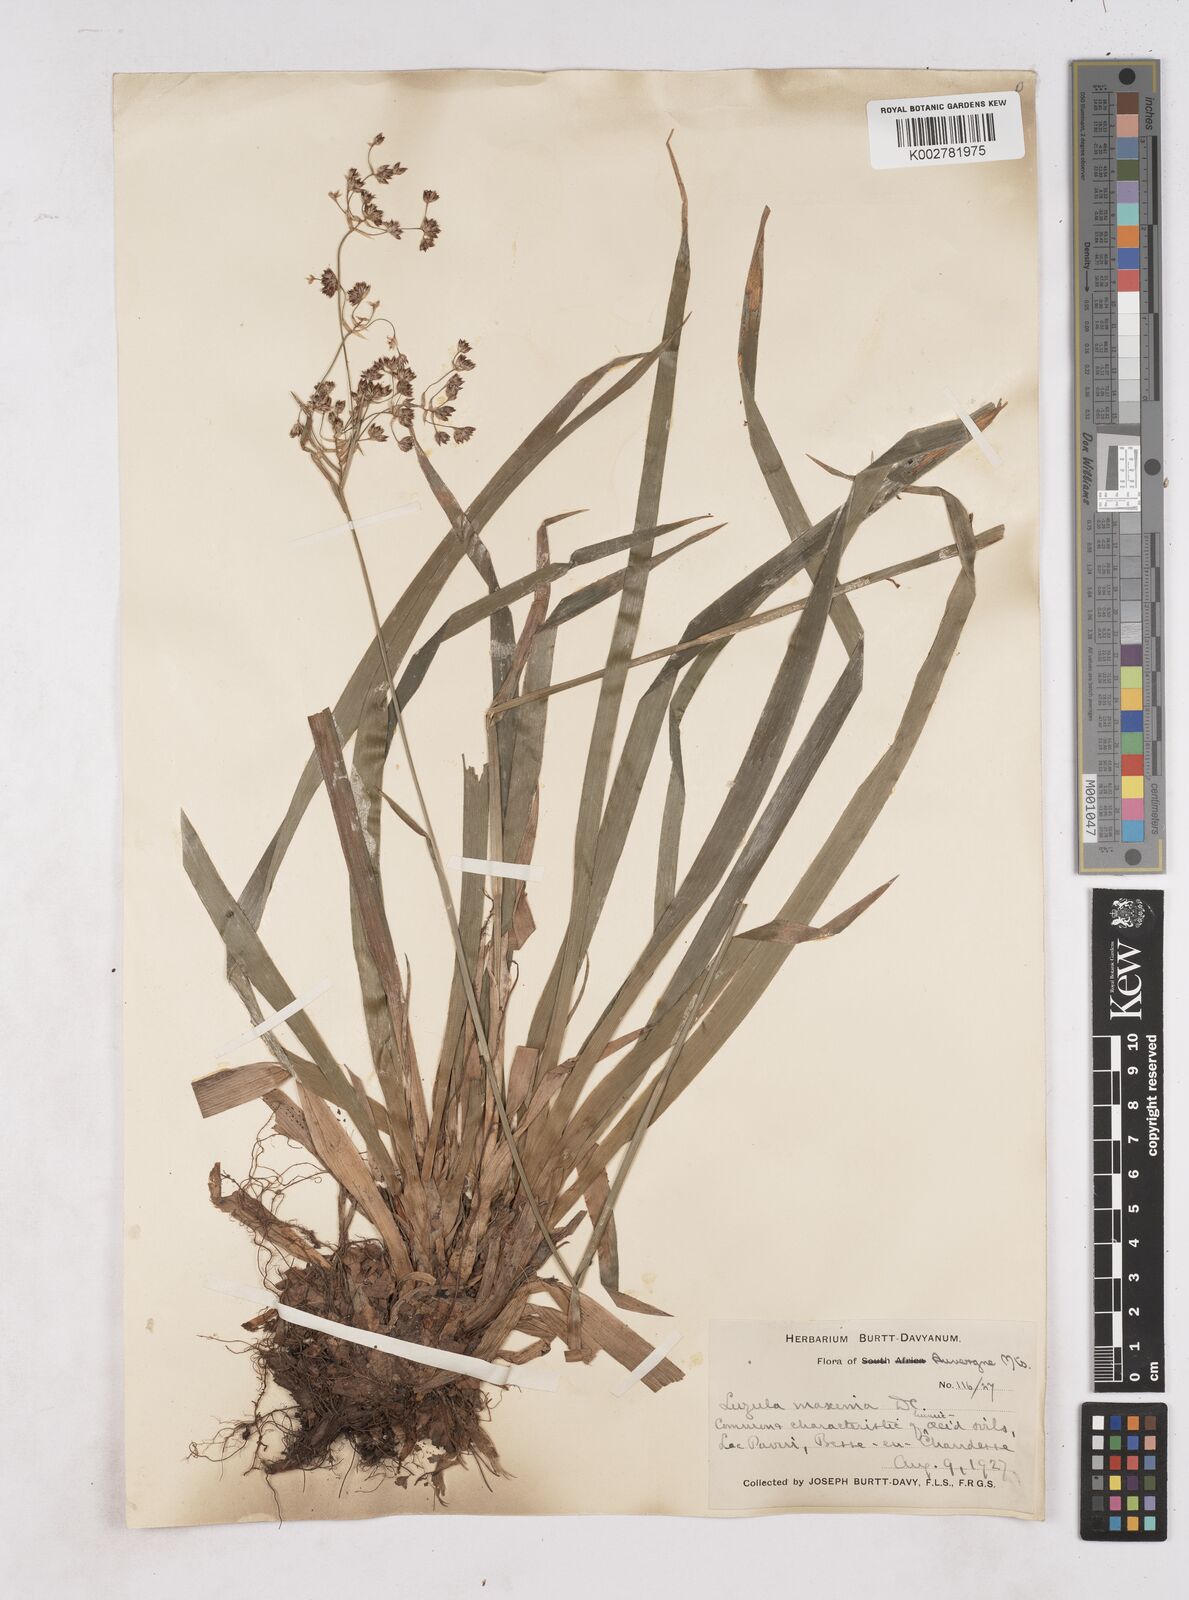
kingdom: Plantae
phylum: Tracheophyta
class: Liliopsida
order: Poales
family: Juncaceae
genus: Luzula
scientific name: Luzula sylvatica
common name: Great wood-rush
